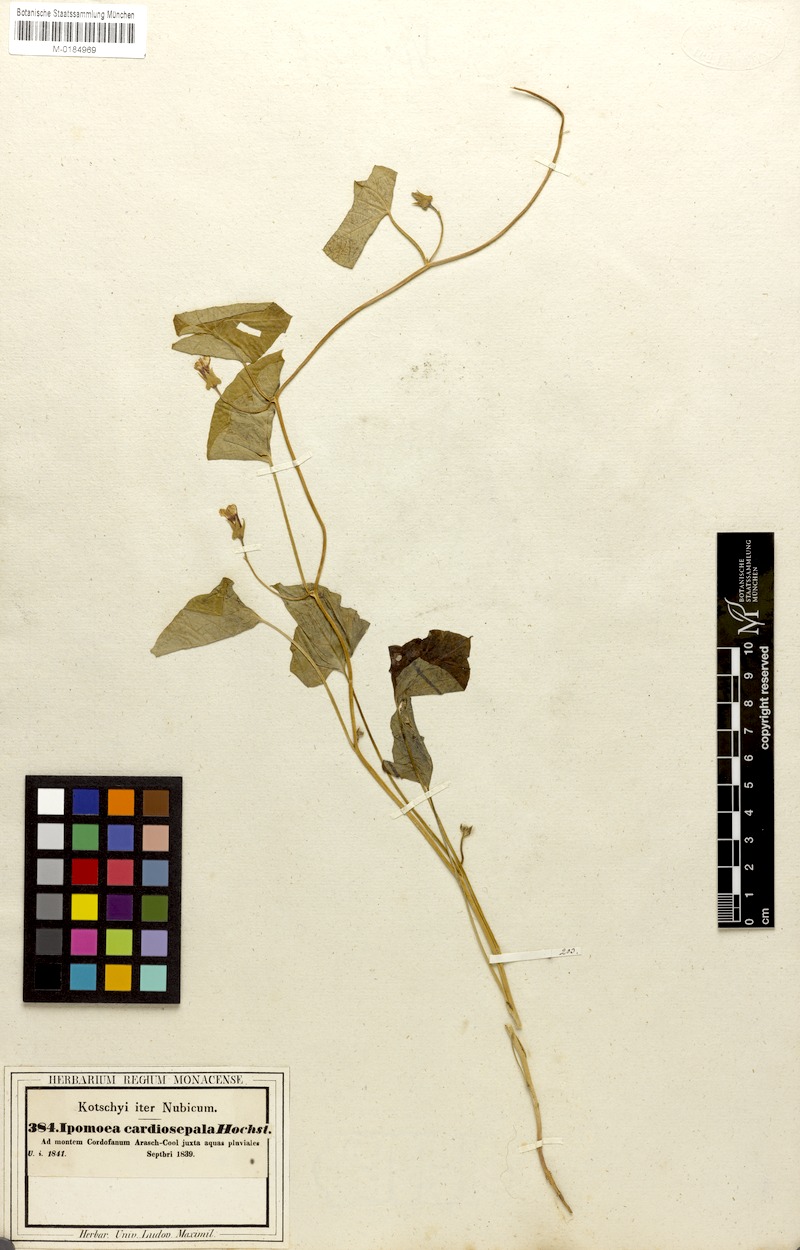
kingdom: Plantae
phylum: Tracheophyta
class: Magnoliopsida
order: Solanales
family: Convolvulaceae
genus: Ipomoea
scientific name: Ipomoea sinensis
